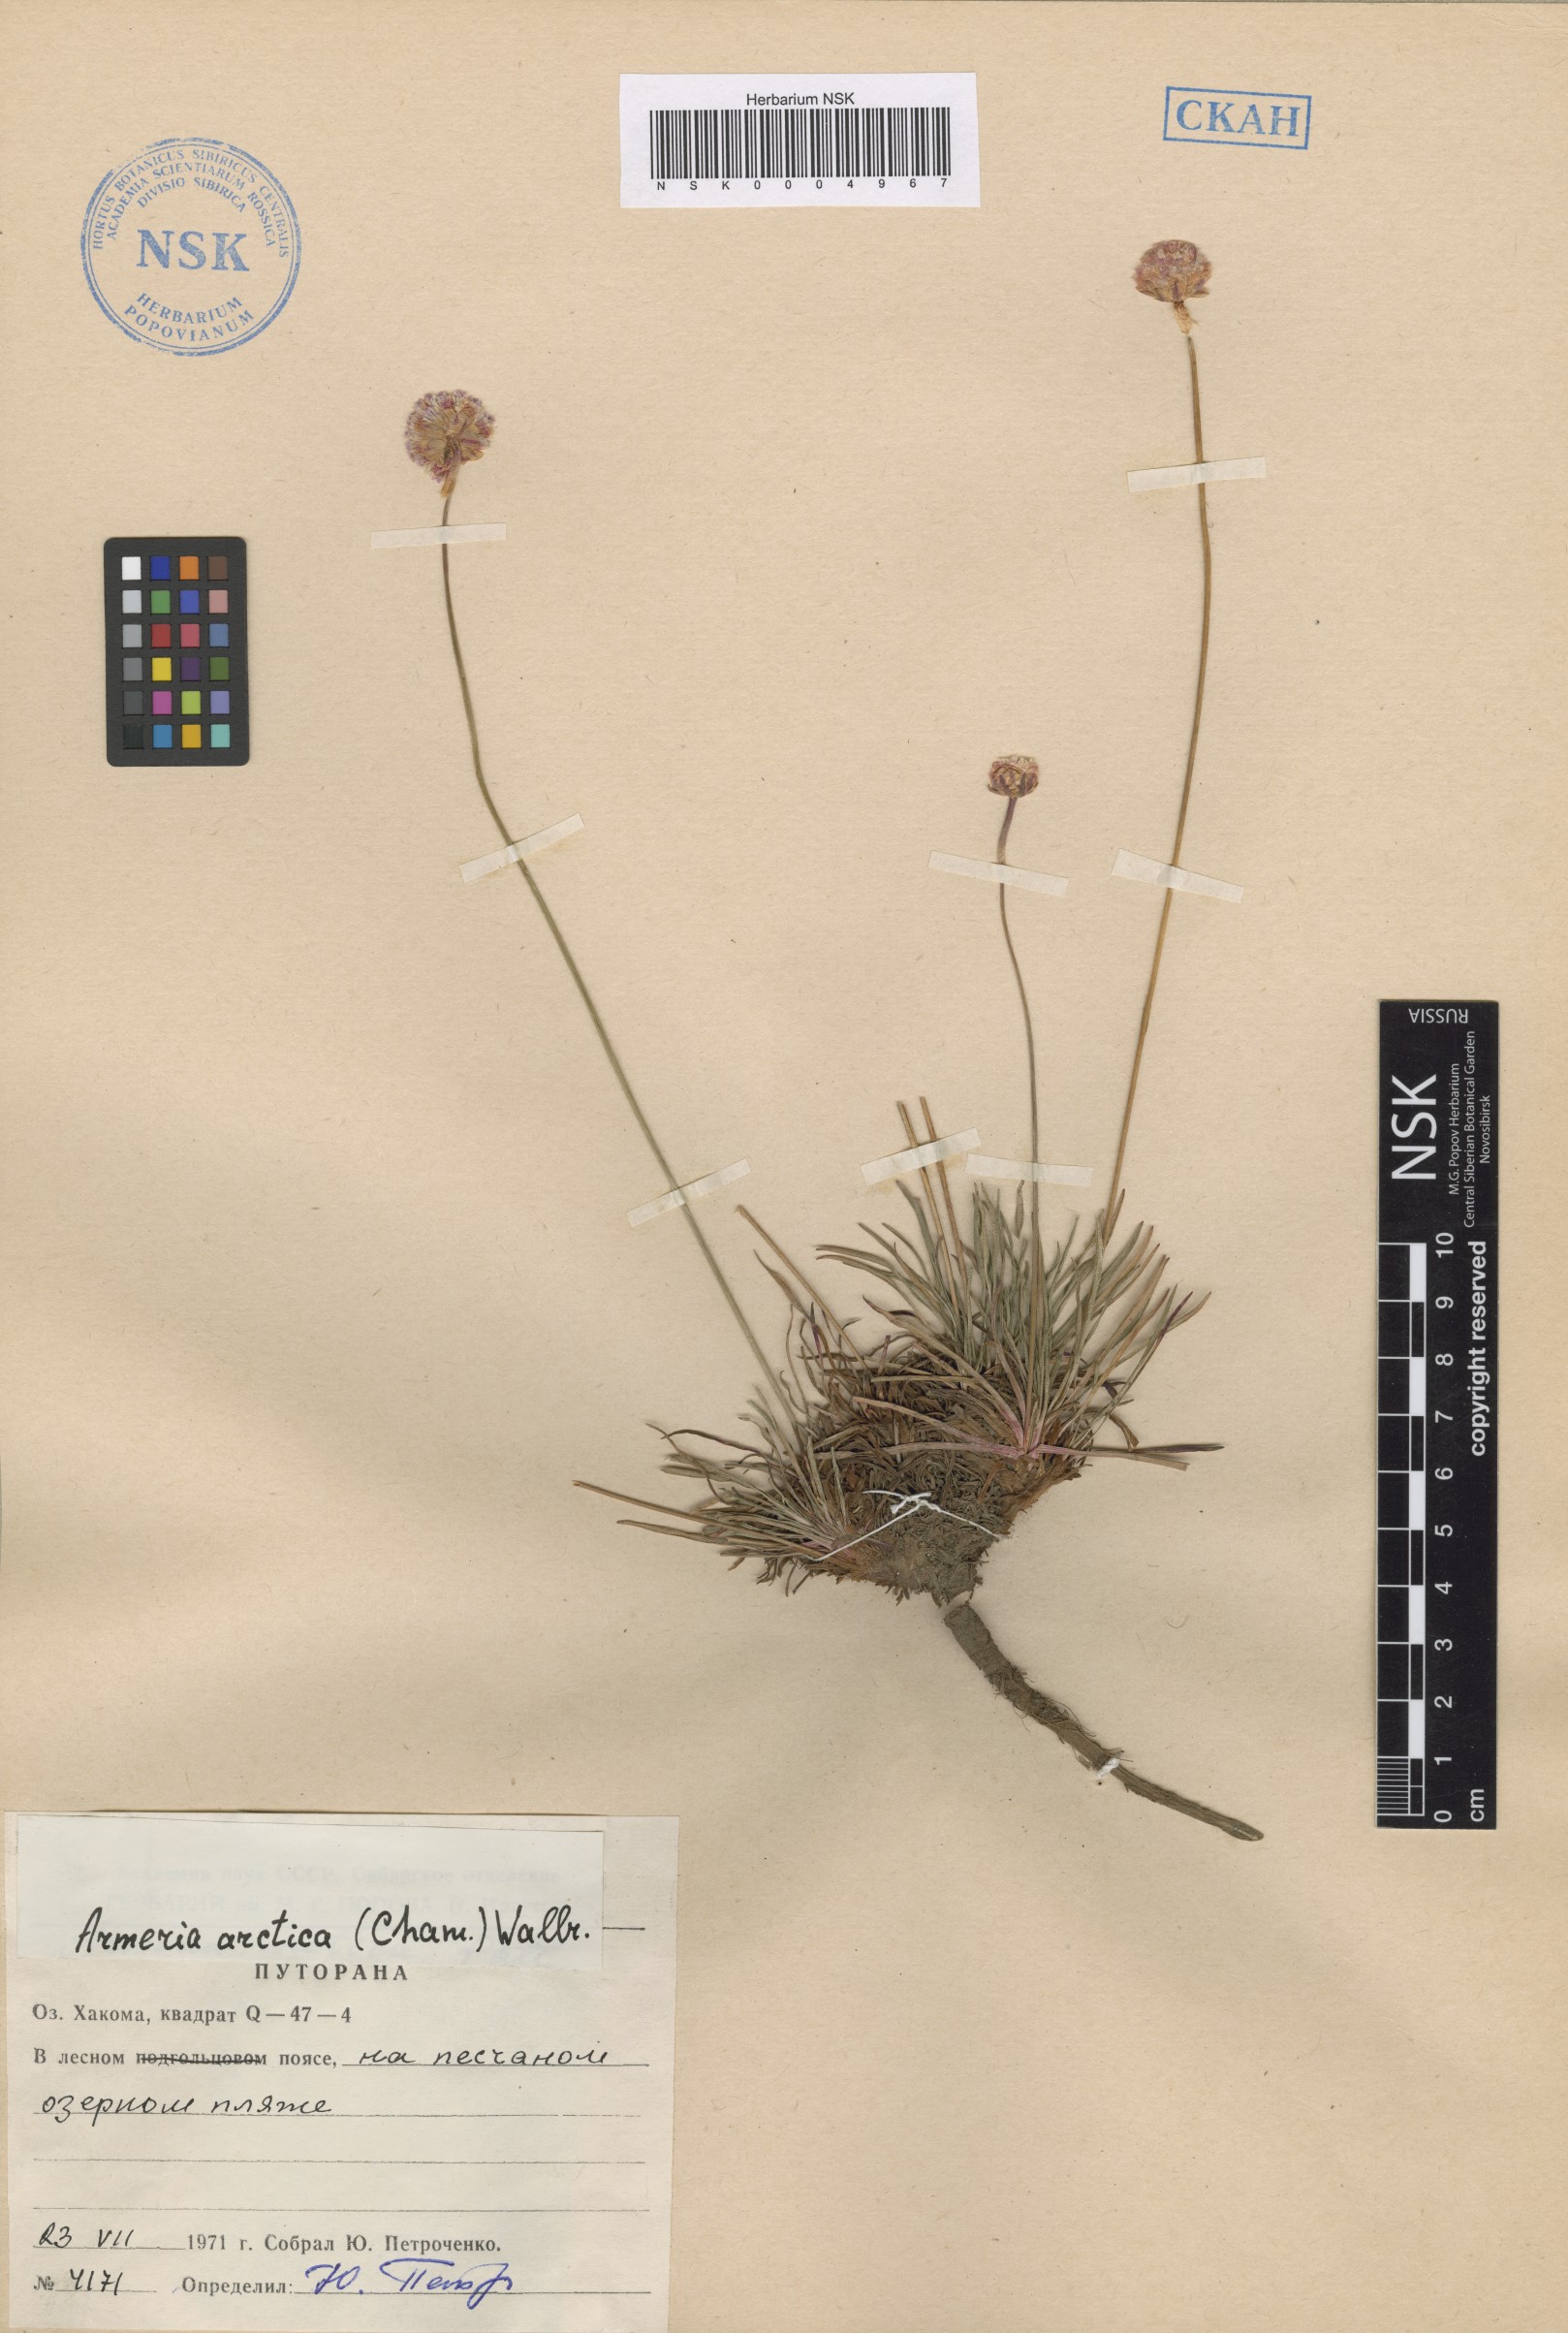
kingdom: Plantae
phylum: Tracheophyta
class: Magnoliopsida
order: Caryophyllales
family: Plumbaginaceae
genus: Armeria
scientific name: Armeria maritima
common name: Thrift
